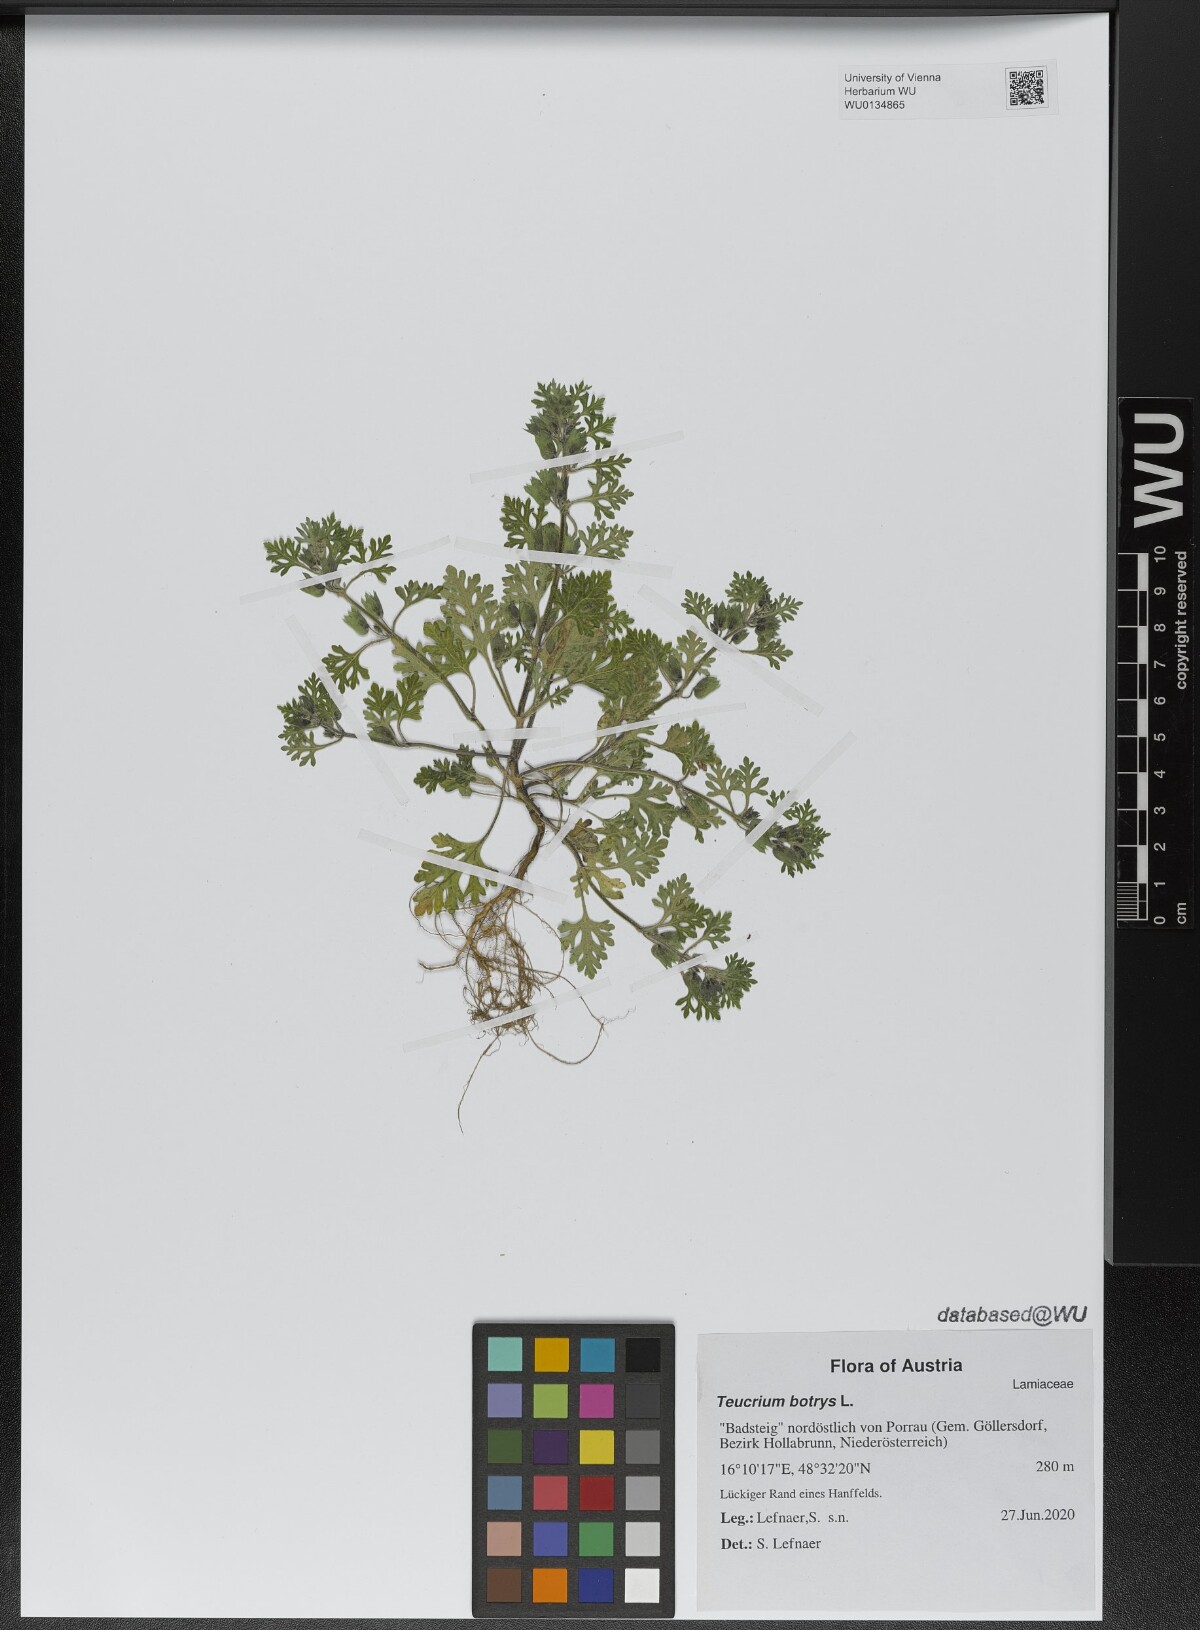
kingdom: Plantae
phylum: Tracheophyta
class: Magnoliopsida
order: Lamiales
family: Lamiaceae
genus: Teucrium
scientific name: Teucrium botrys
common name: Cut-leaved germander
